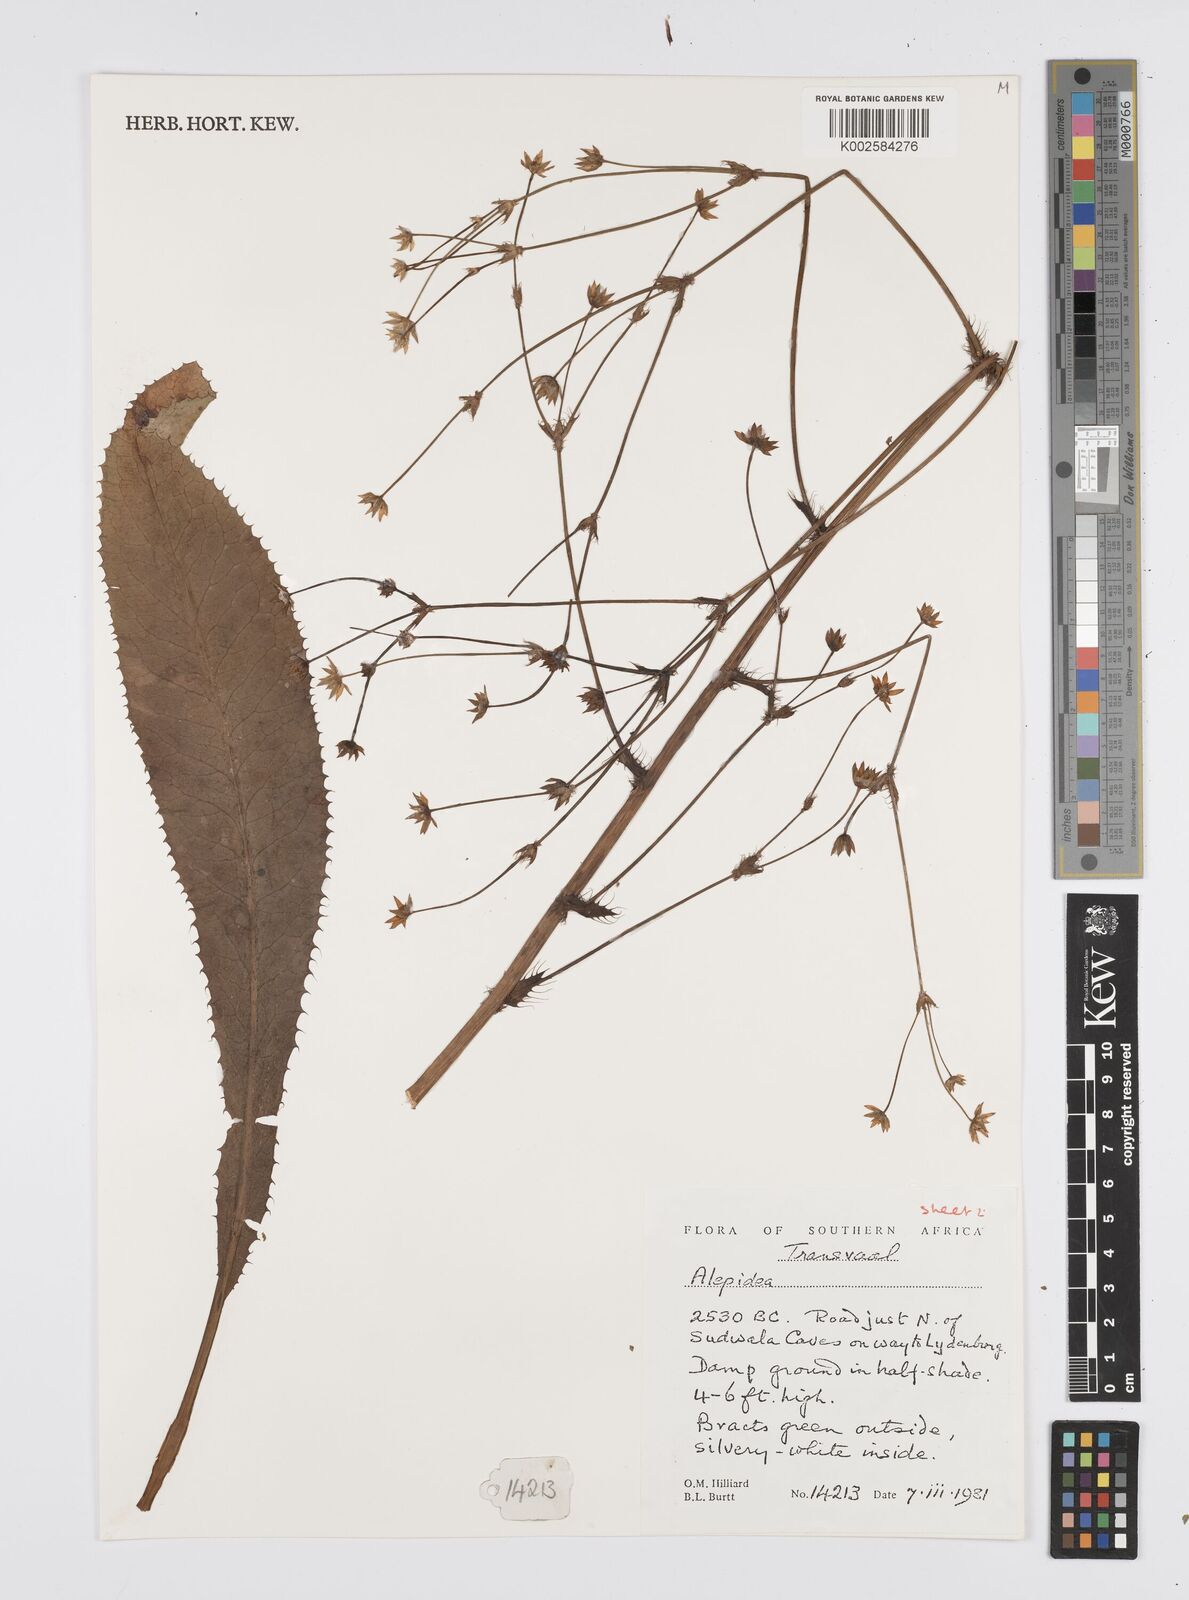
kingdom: Plantae
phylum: Tracheophyta
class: Magnoliopsida
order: Apiales
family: Apiaceae
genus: Alepidea
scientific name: Alepidea
